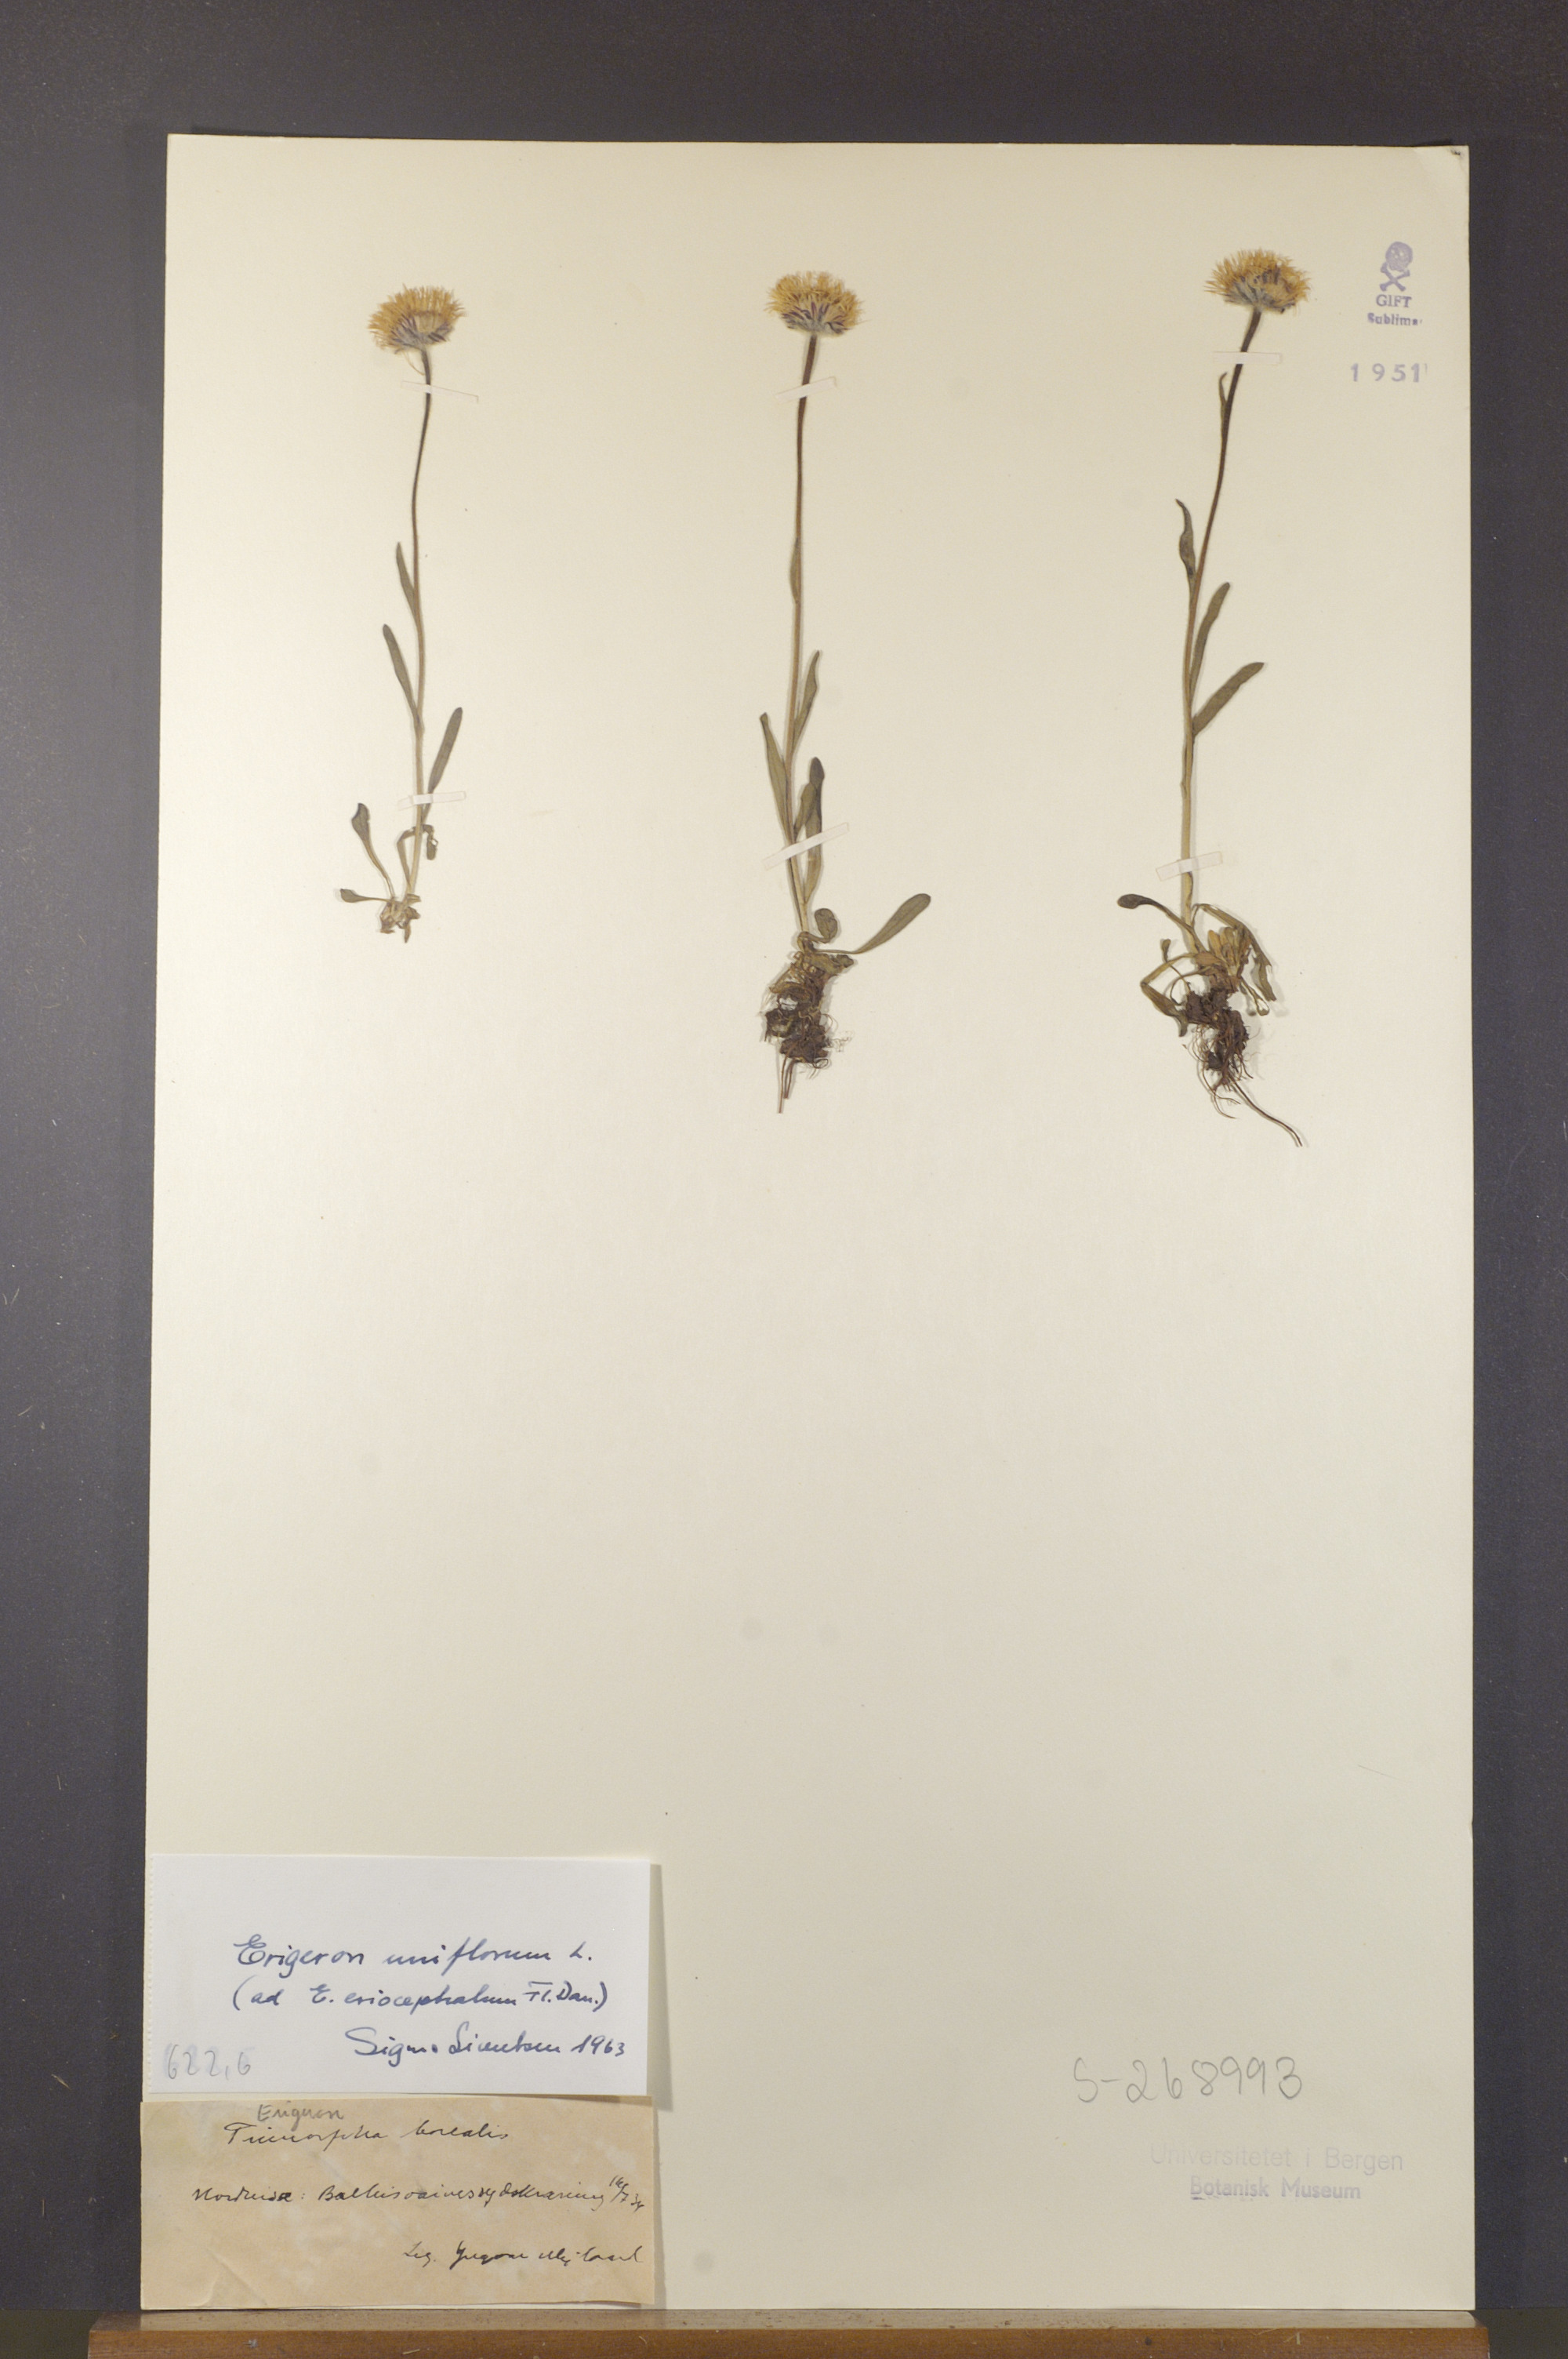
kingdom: Plantae
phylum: Tracheophyta
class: Magnoliopsida
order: Asterales
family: Asteraceae
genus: Erigeron
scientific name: Erigeron uniflorus
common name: Northern daisy
